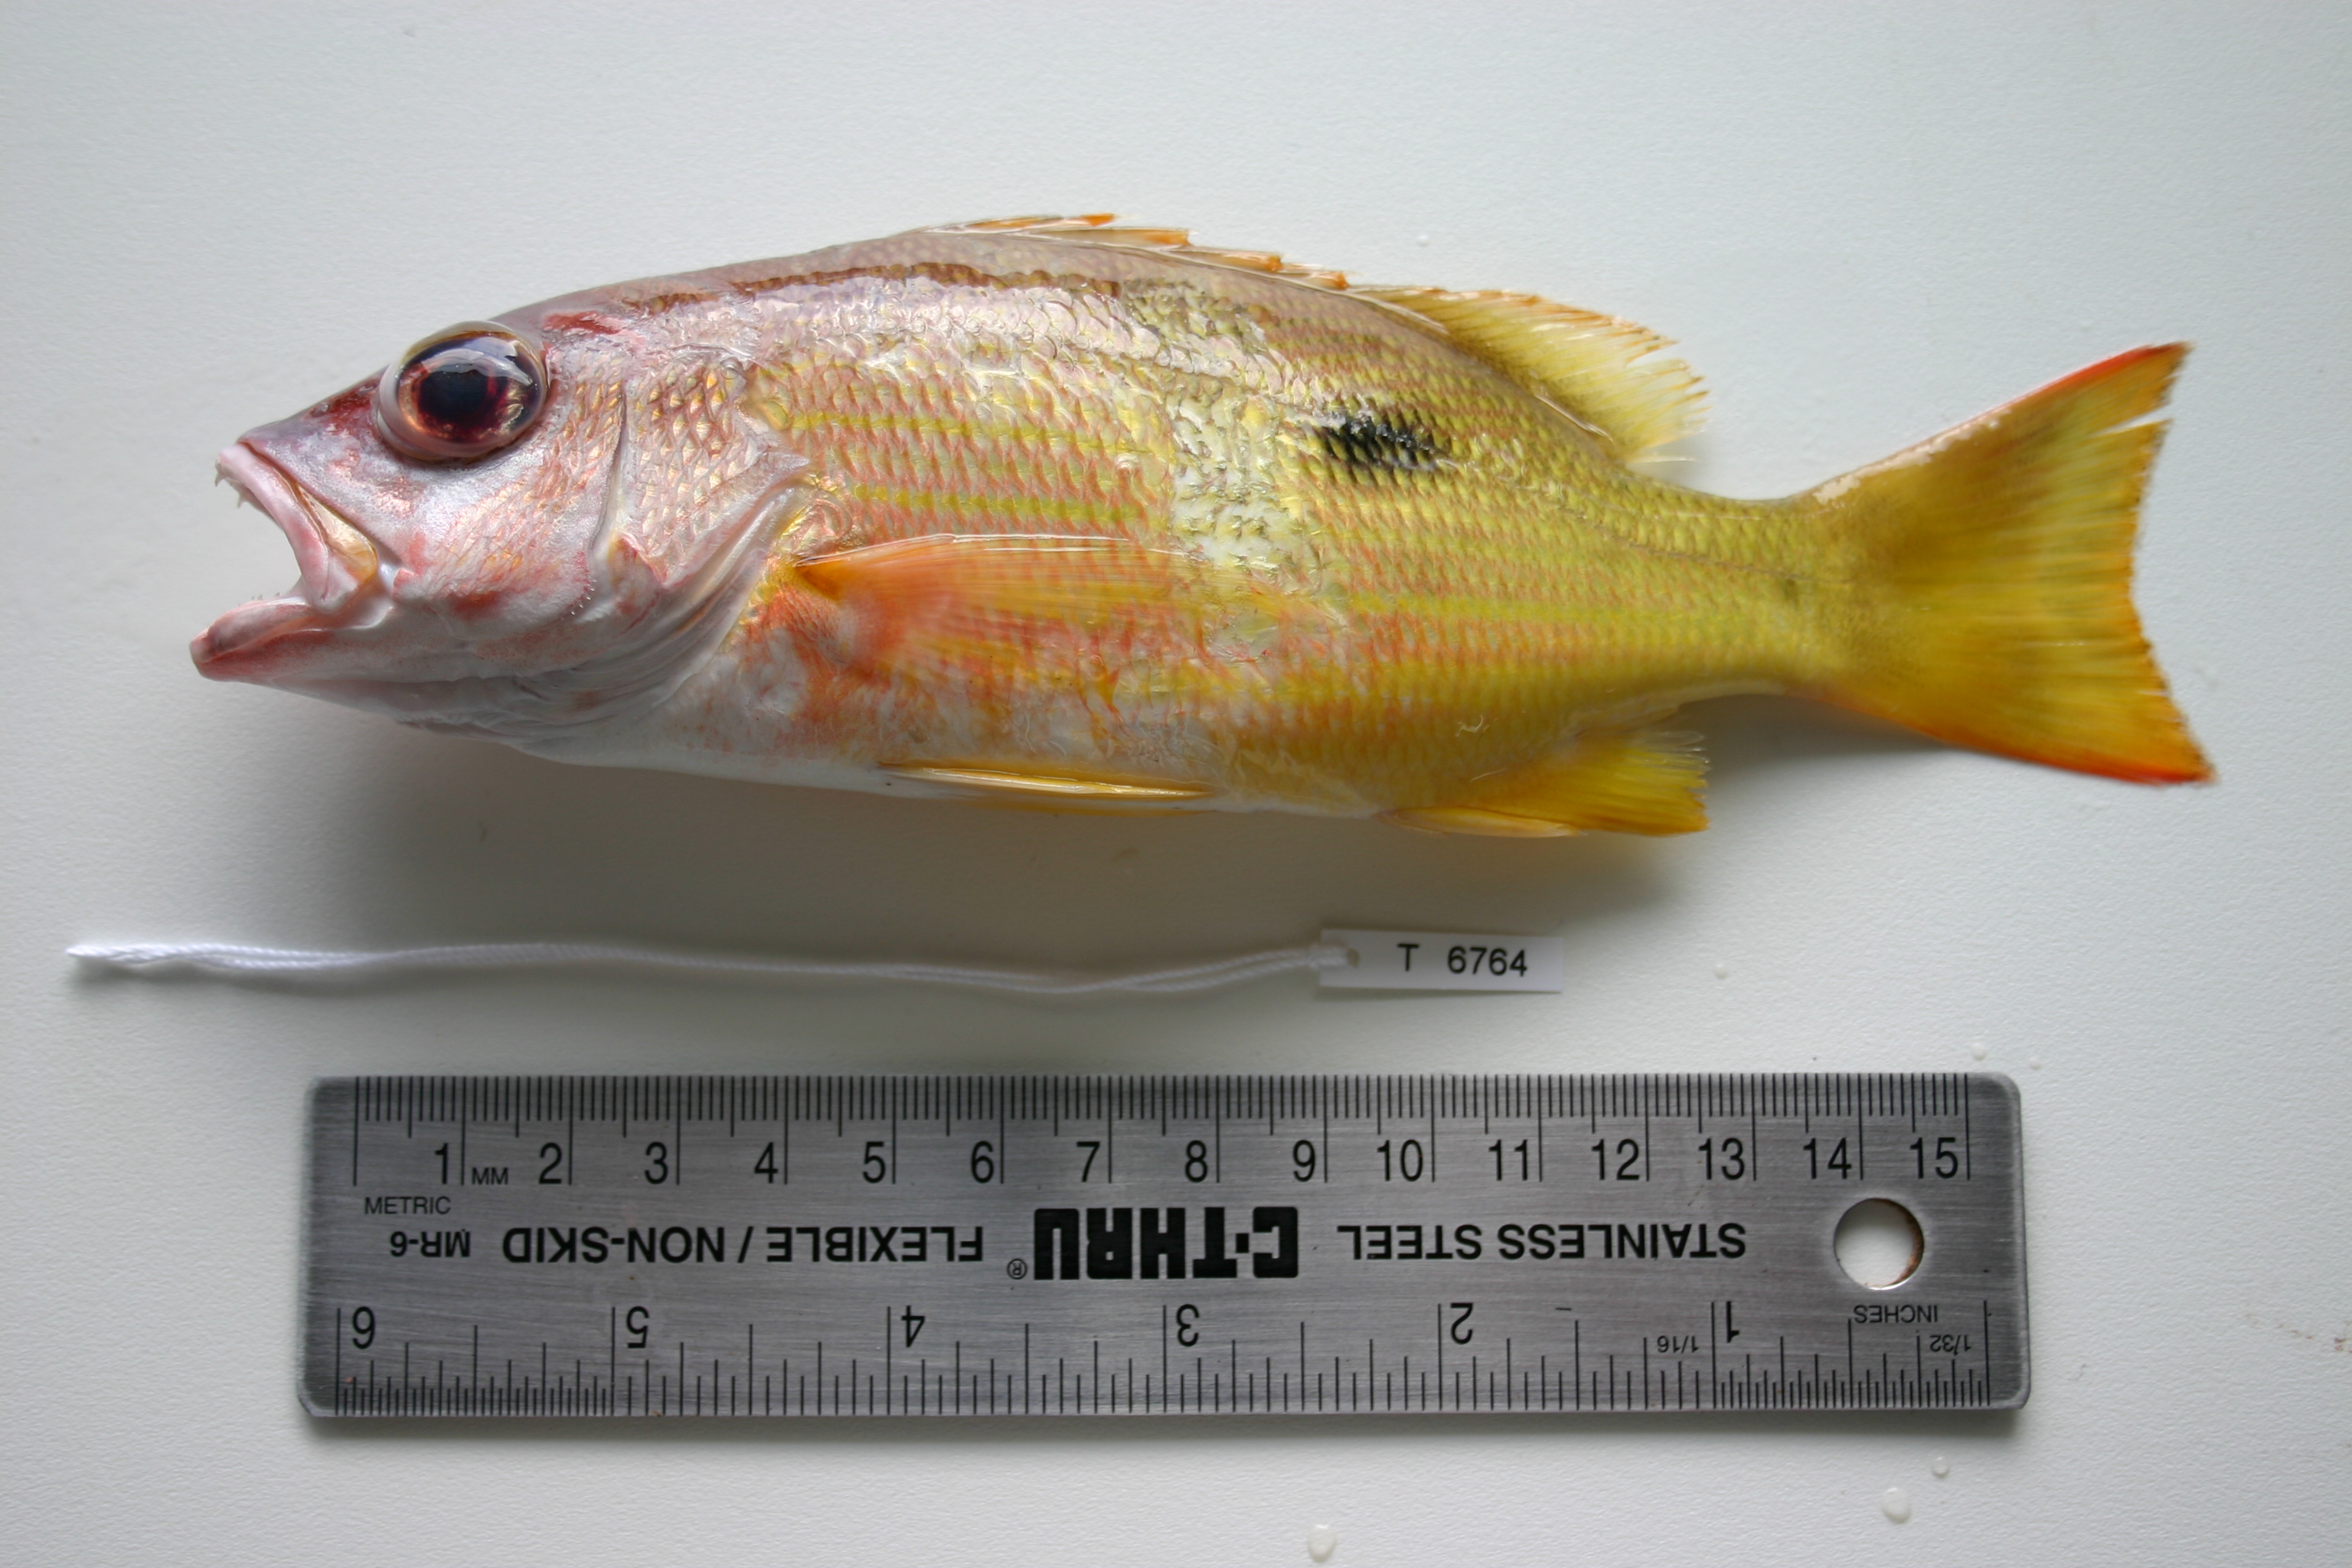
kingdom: Animalia
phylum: Chordata
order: Perciformes
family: Lutjanidae
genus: Lutjanus
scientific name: Lutjanus fulviflamma
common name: Blackspot snapper
